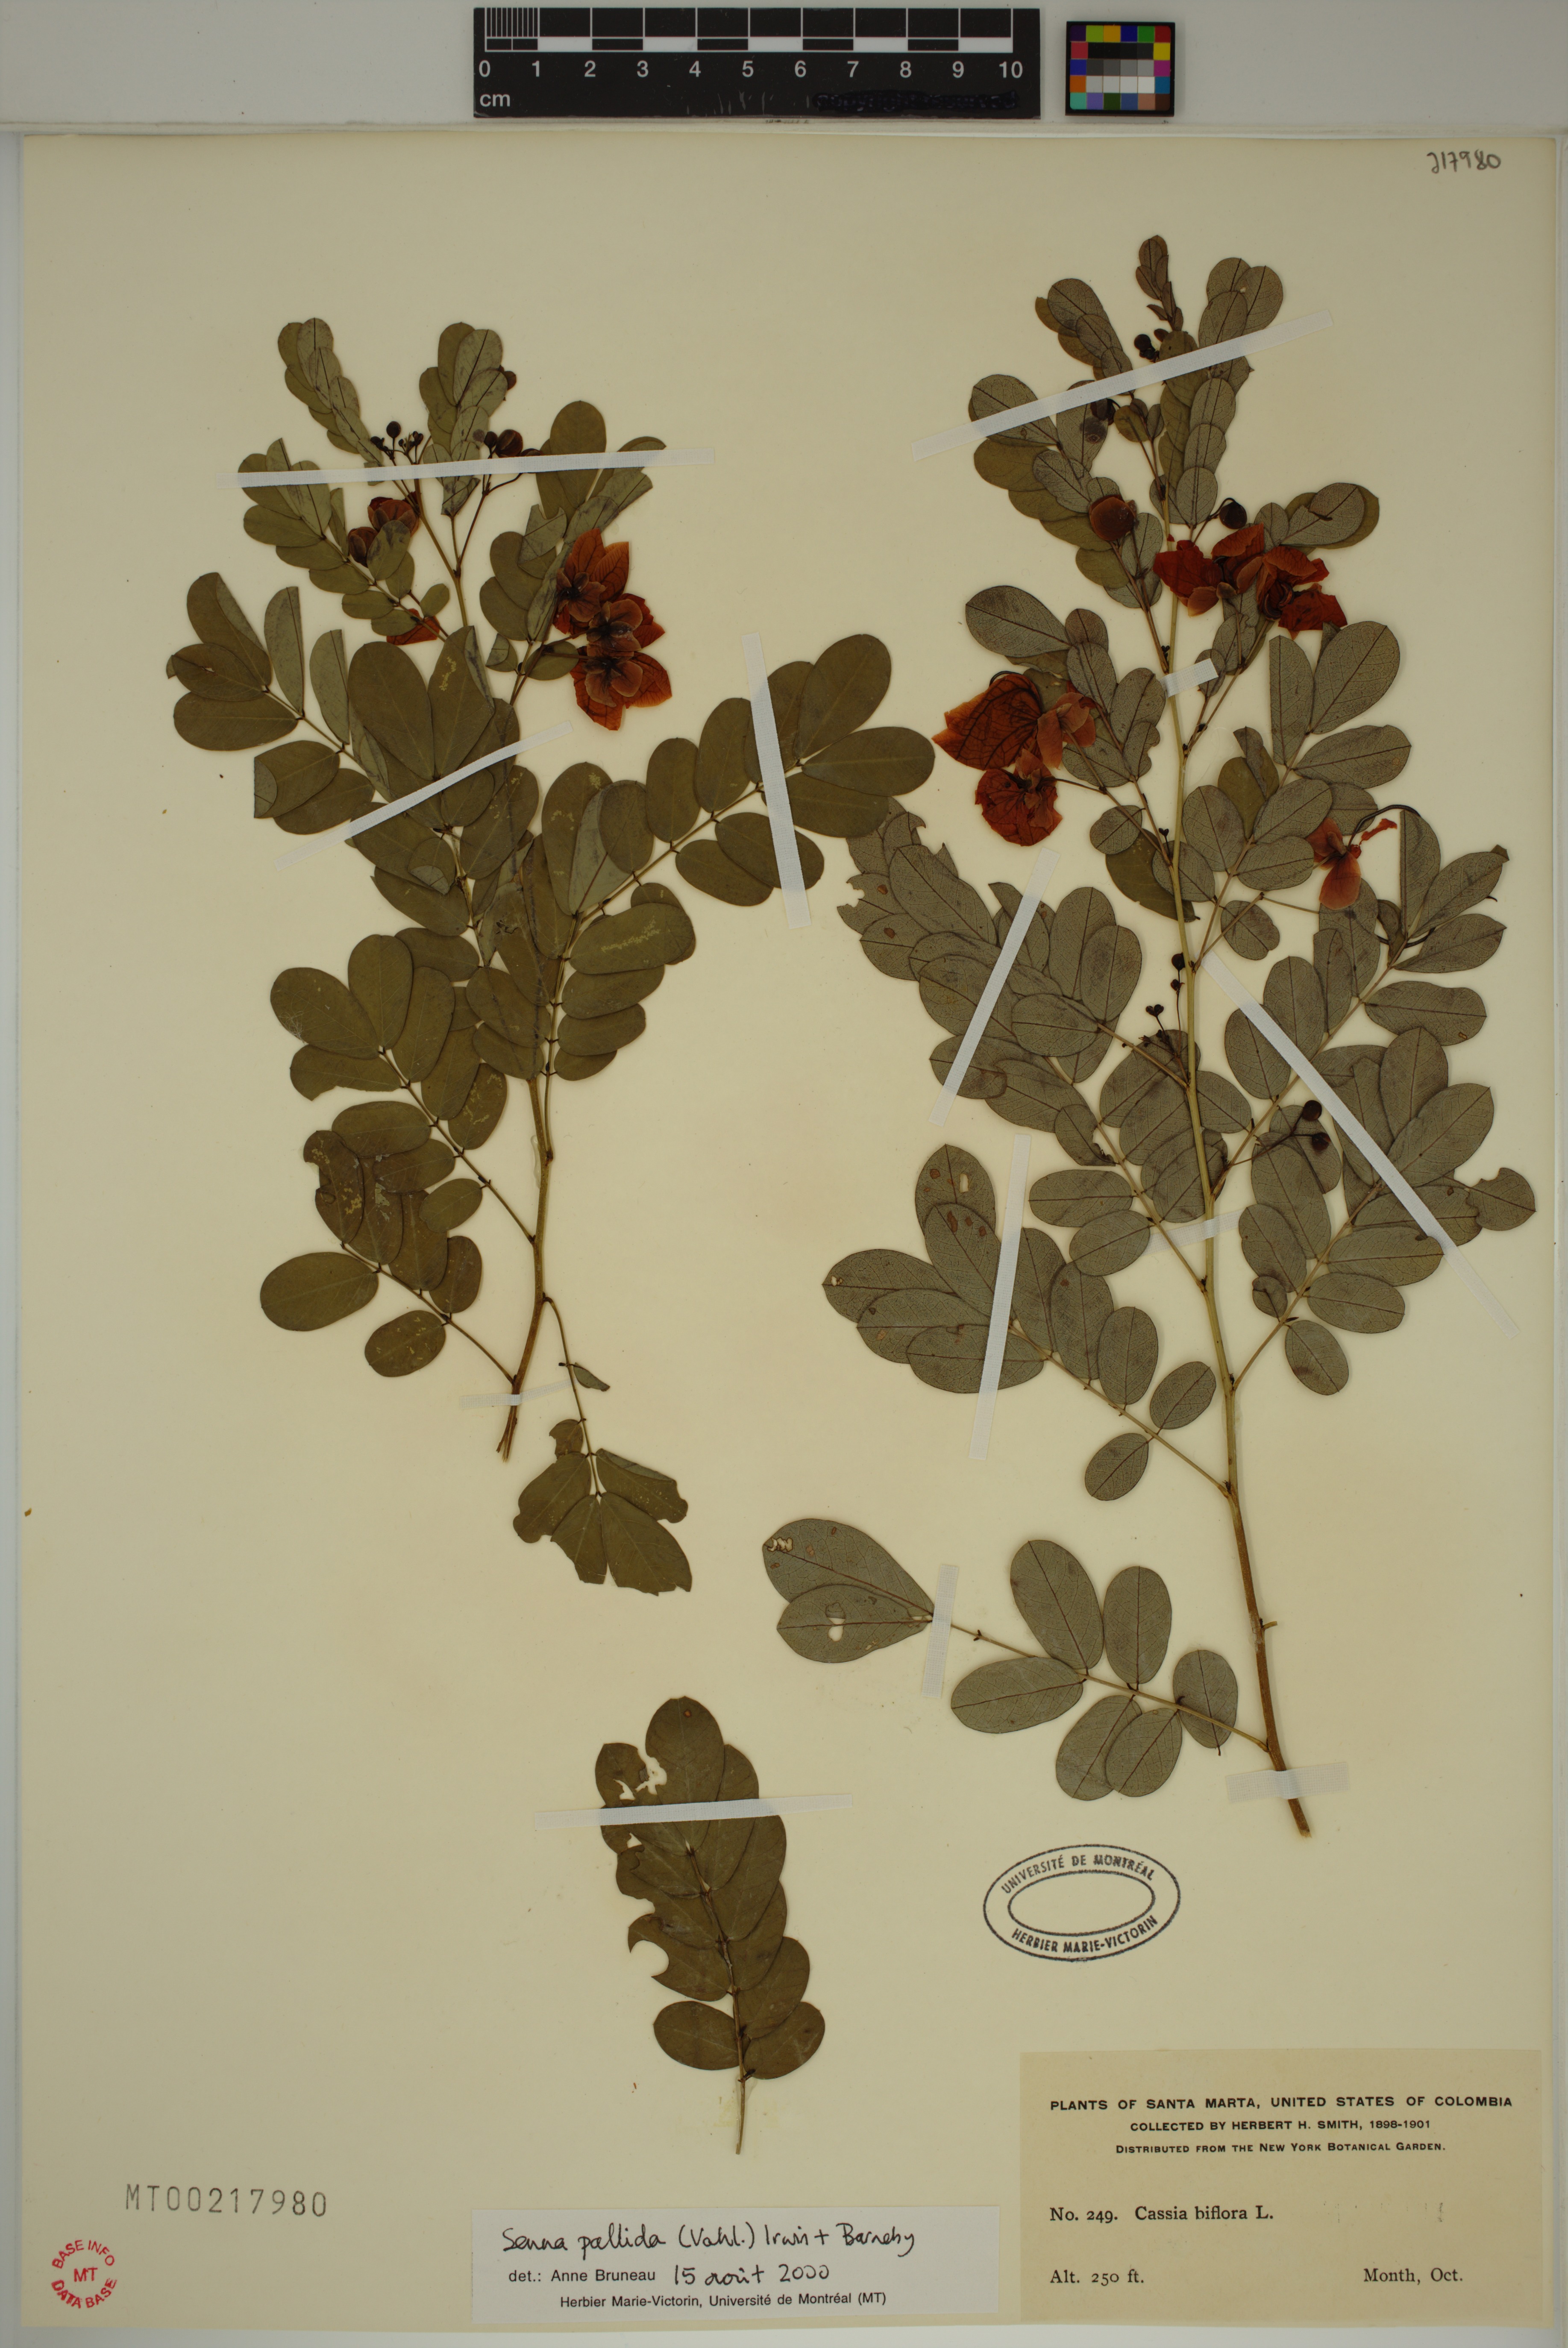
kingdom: Plantae
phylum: Tracheophyta
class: Magnoliopsida
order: Fabales
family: Fabaceae
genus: Senna
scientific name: Senna pallida
